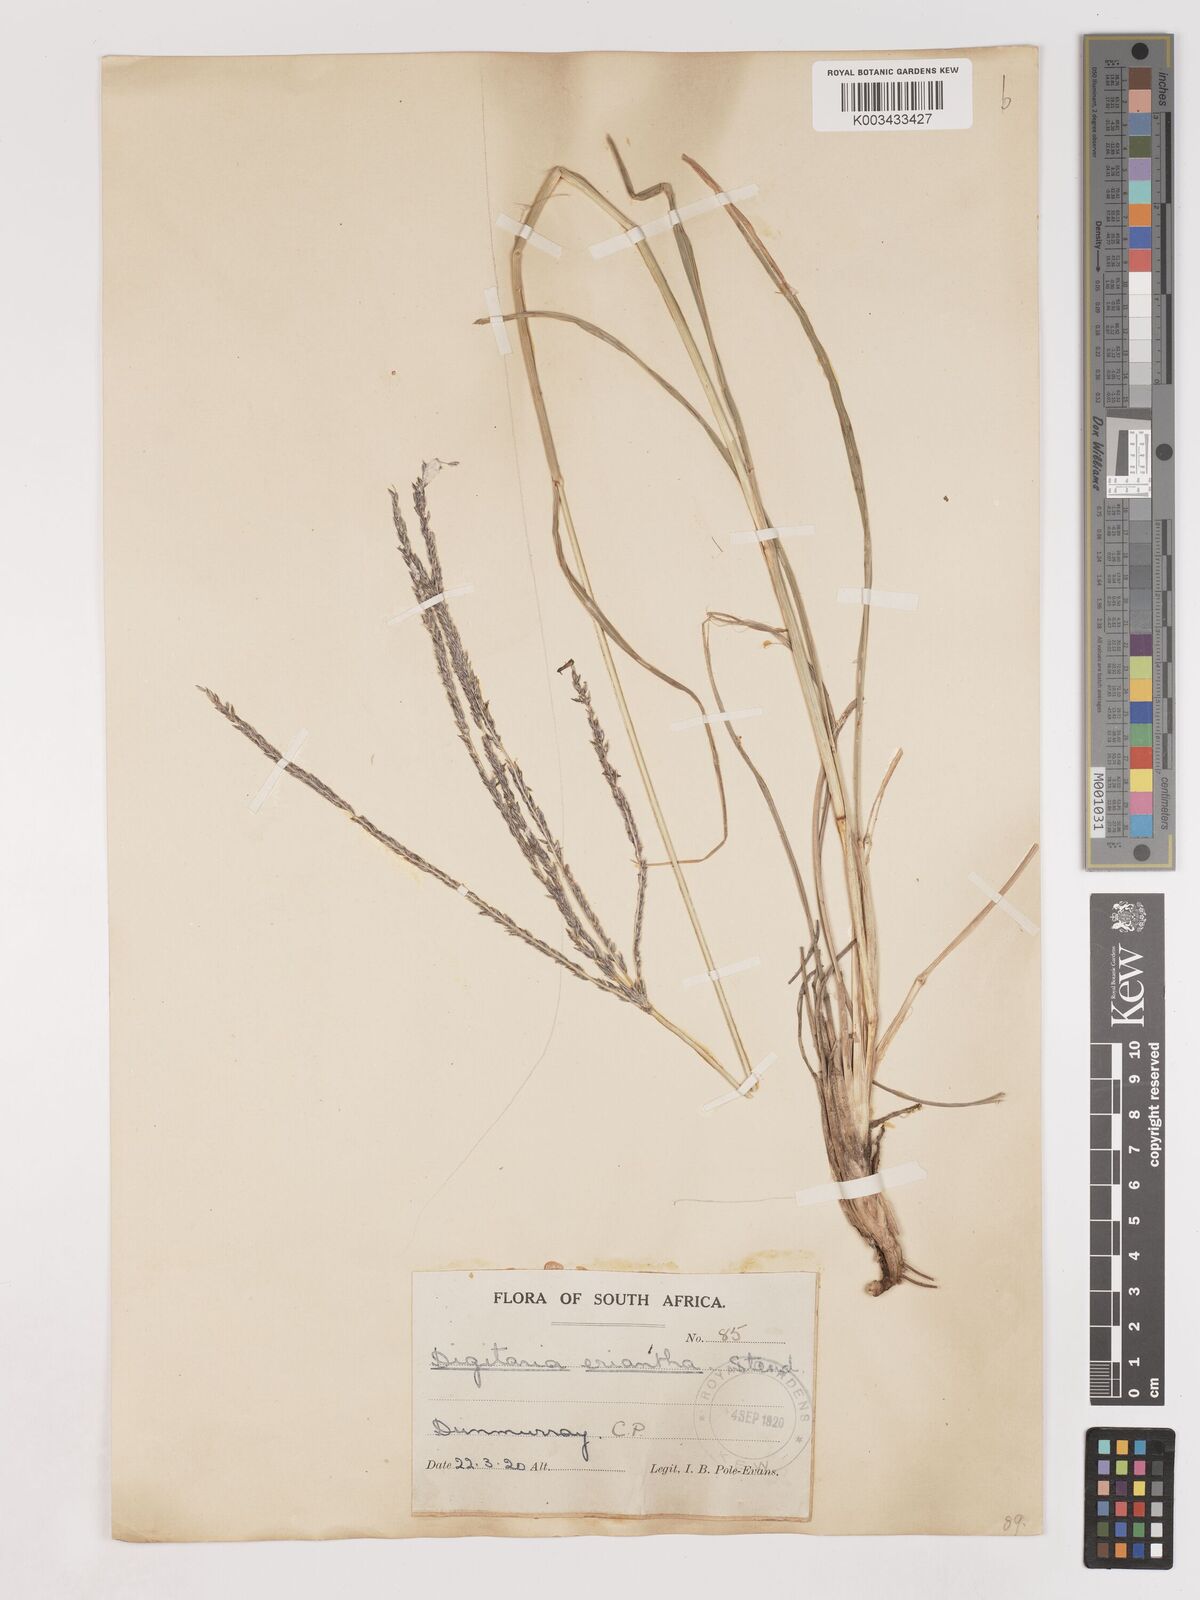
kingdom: Plantae
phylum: Tracheophyta
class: Liliopsida
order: Poales
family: Poaceae
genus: Digitaria
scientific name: Digitaria eriantha
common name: Digitgrass
